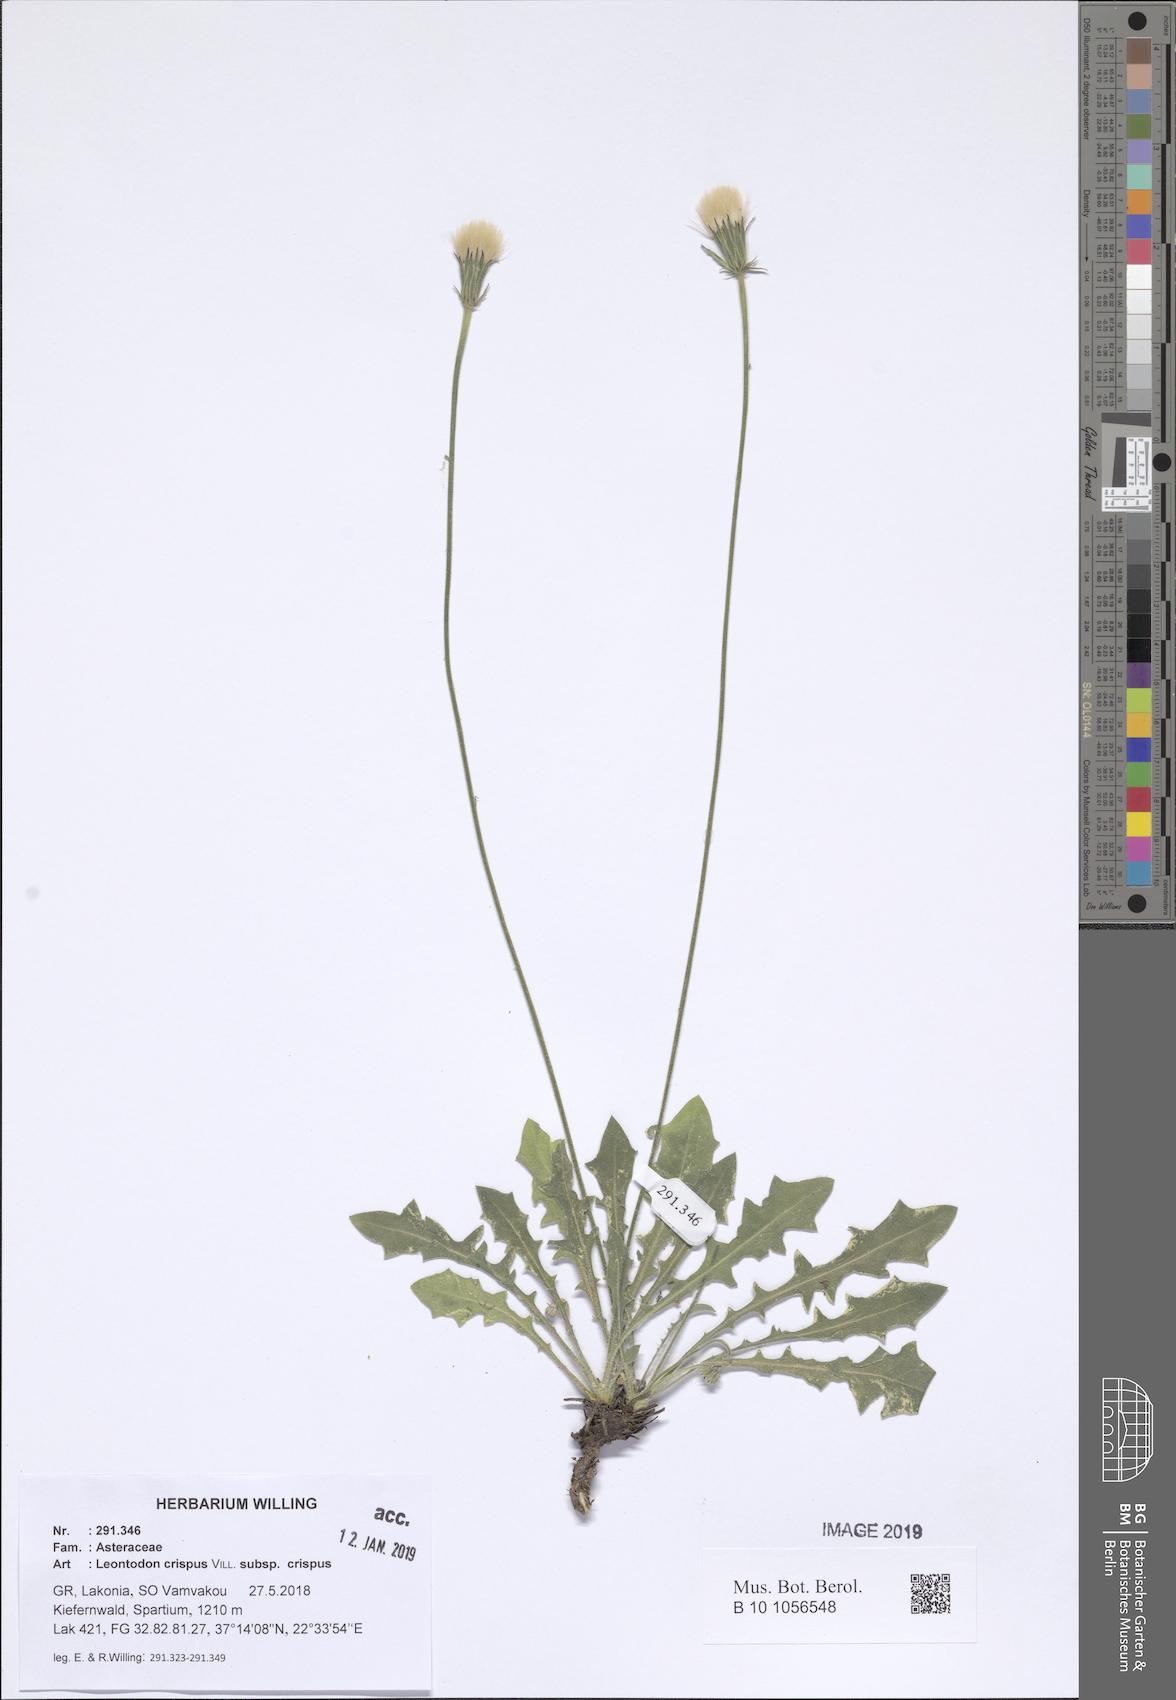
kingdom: Plantae
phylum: Tracheophyta
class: Magnoliopsida
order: Asterales
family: Asteraceae
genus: Leontodon
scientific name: Leontodon hyoseroides
